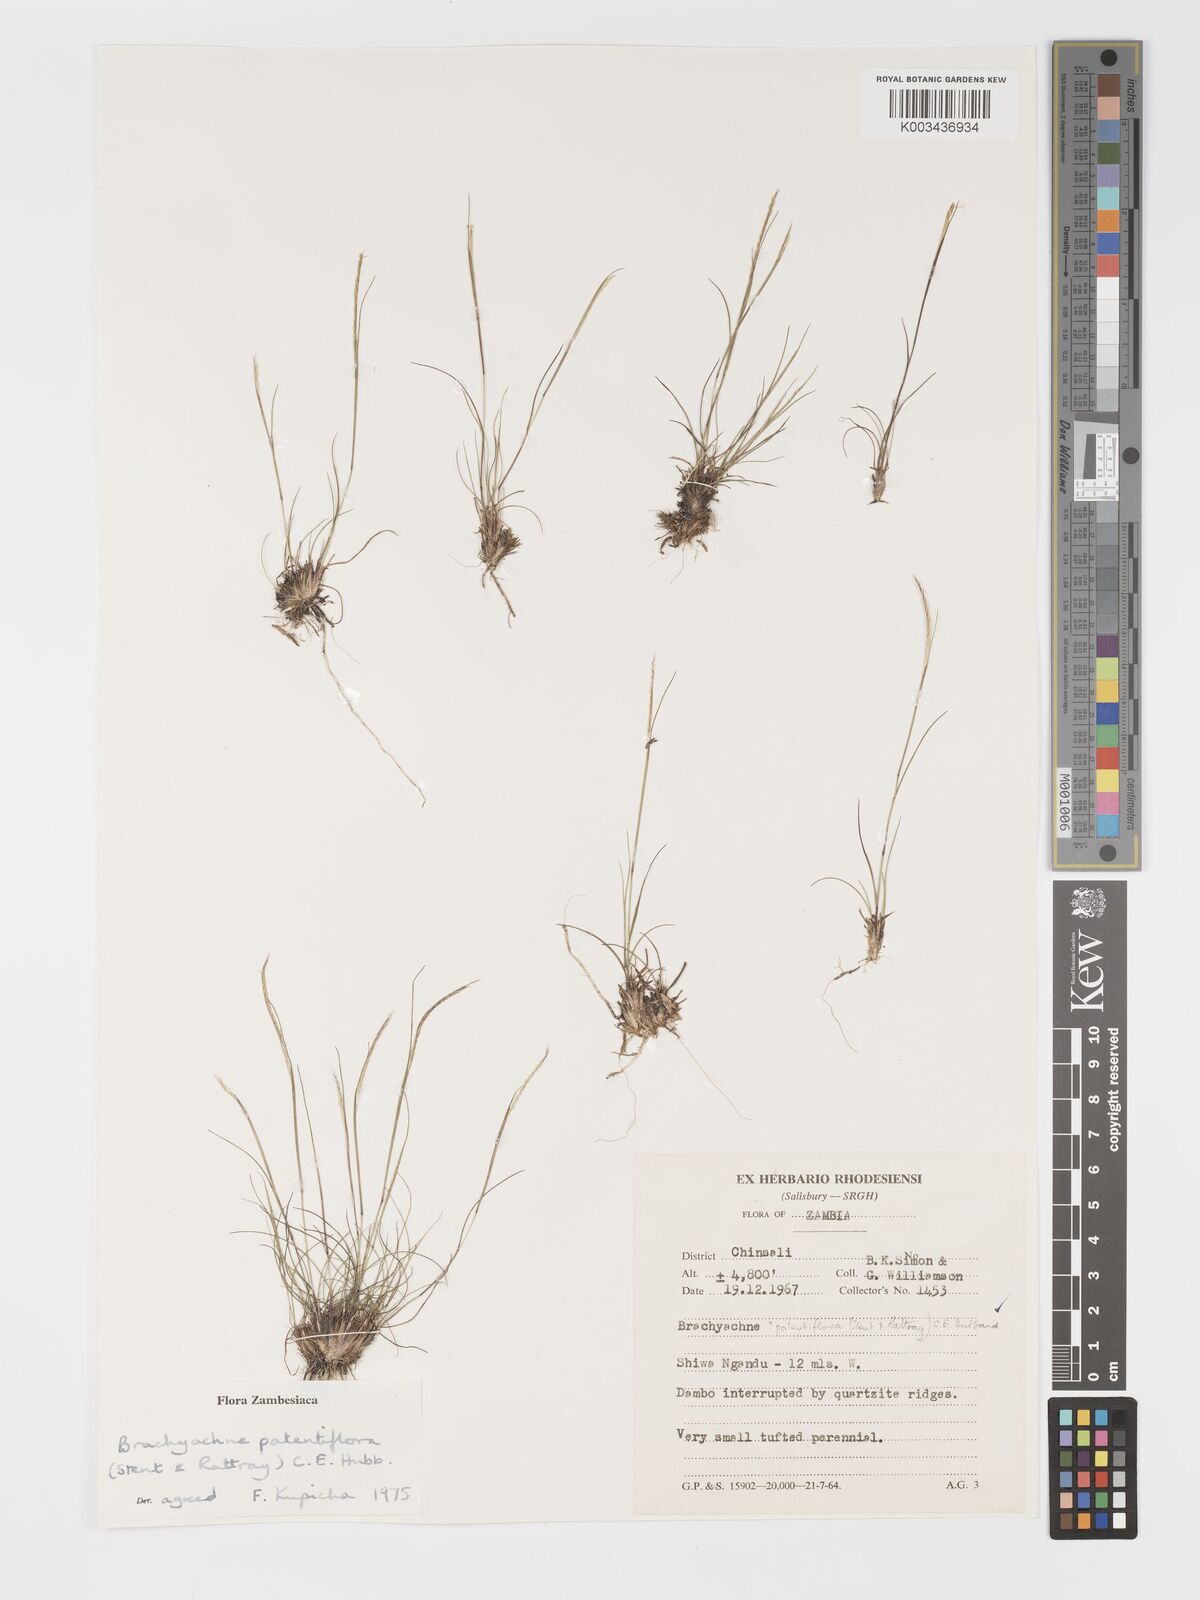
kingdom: Plantae
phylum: Tracheophyta
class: Liliopsida
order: Poales
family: Poaceae
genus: Micrachne
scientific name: Micrachne patentiflora
